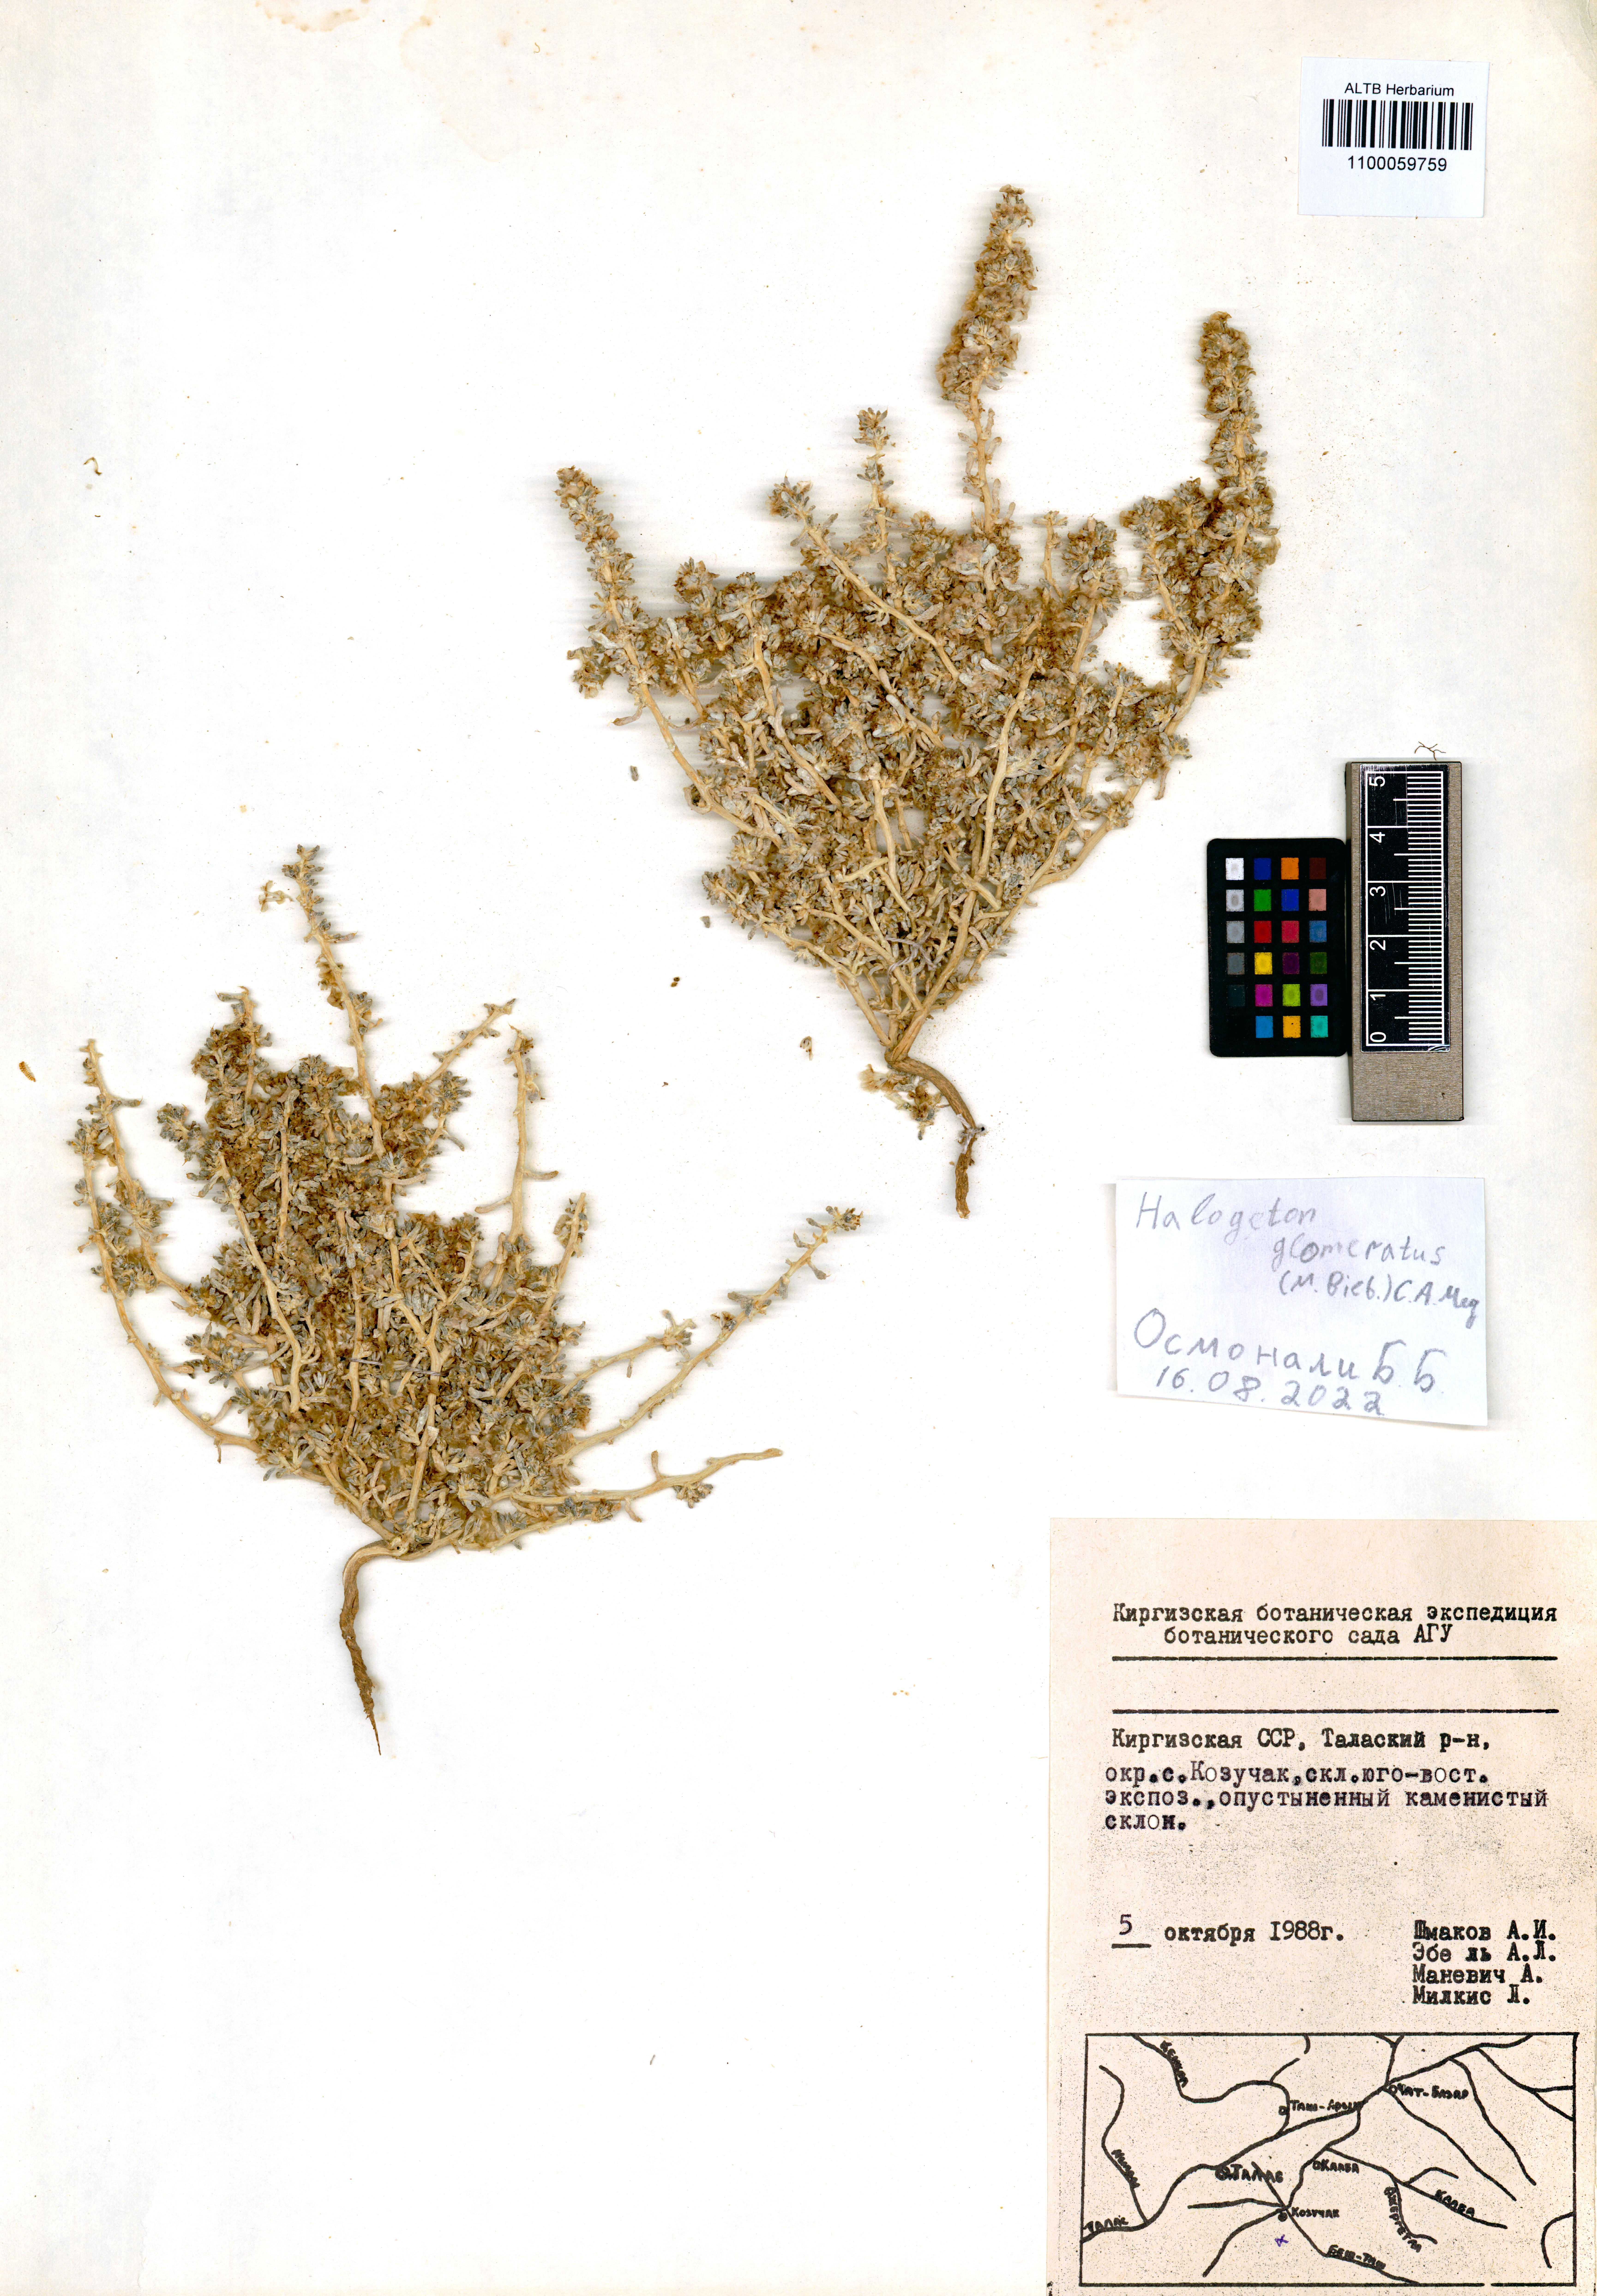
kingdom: Plantae
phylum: Tracheophyta
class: Magnoliopsida
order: Caryophyllales
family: Amaranthaceae
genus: Halogeton
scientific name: Halogeton glomeratus
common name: Saltlover
